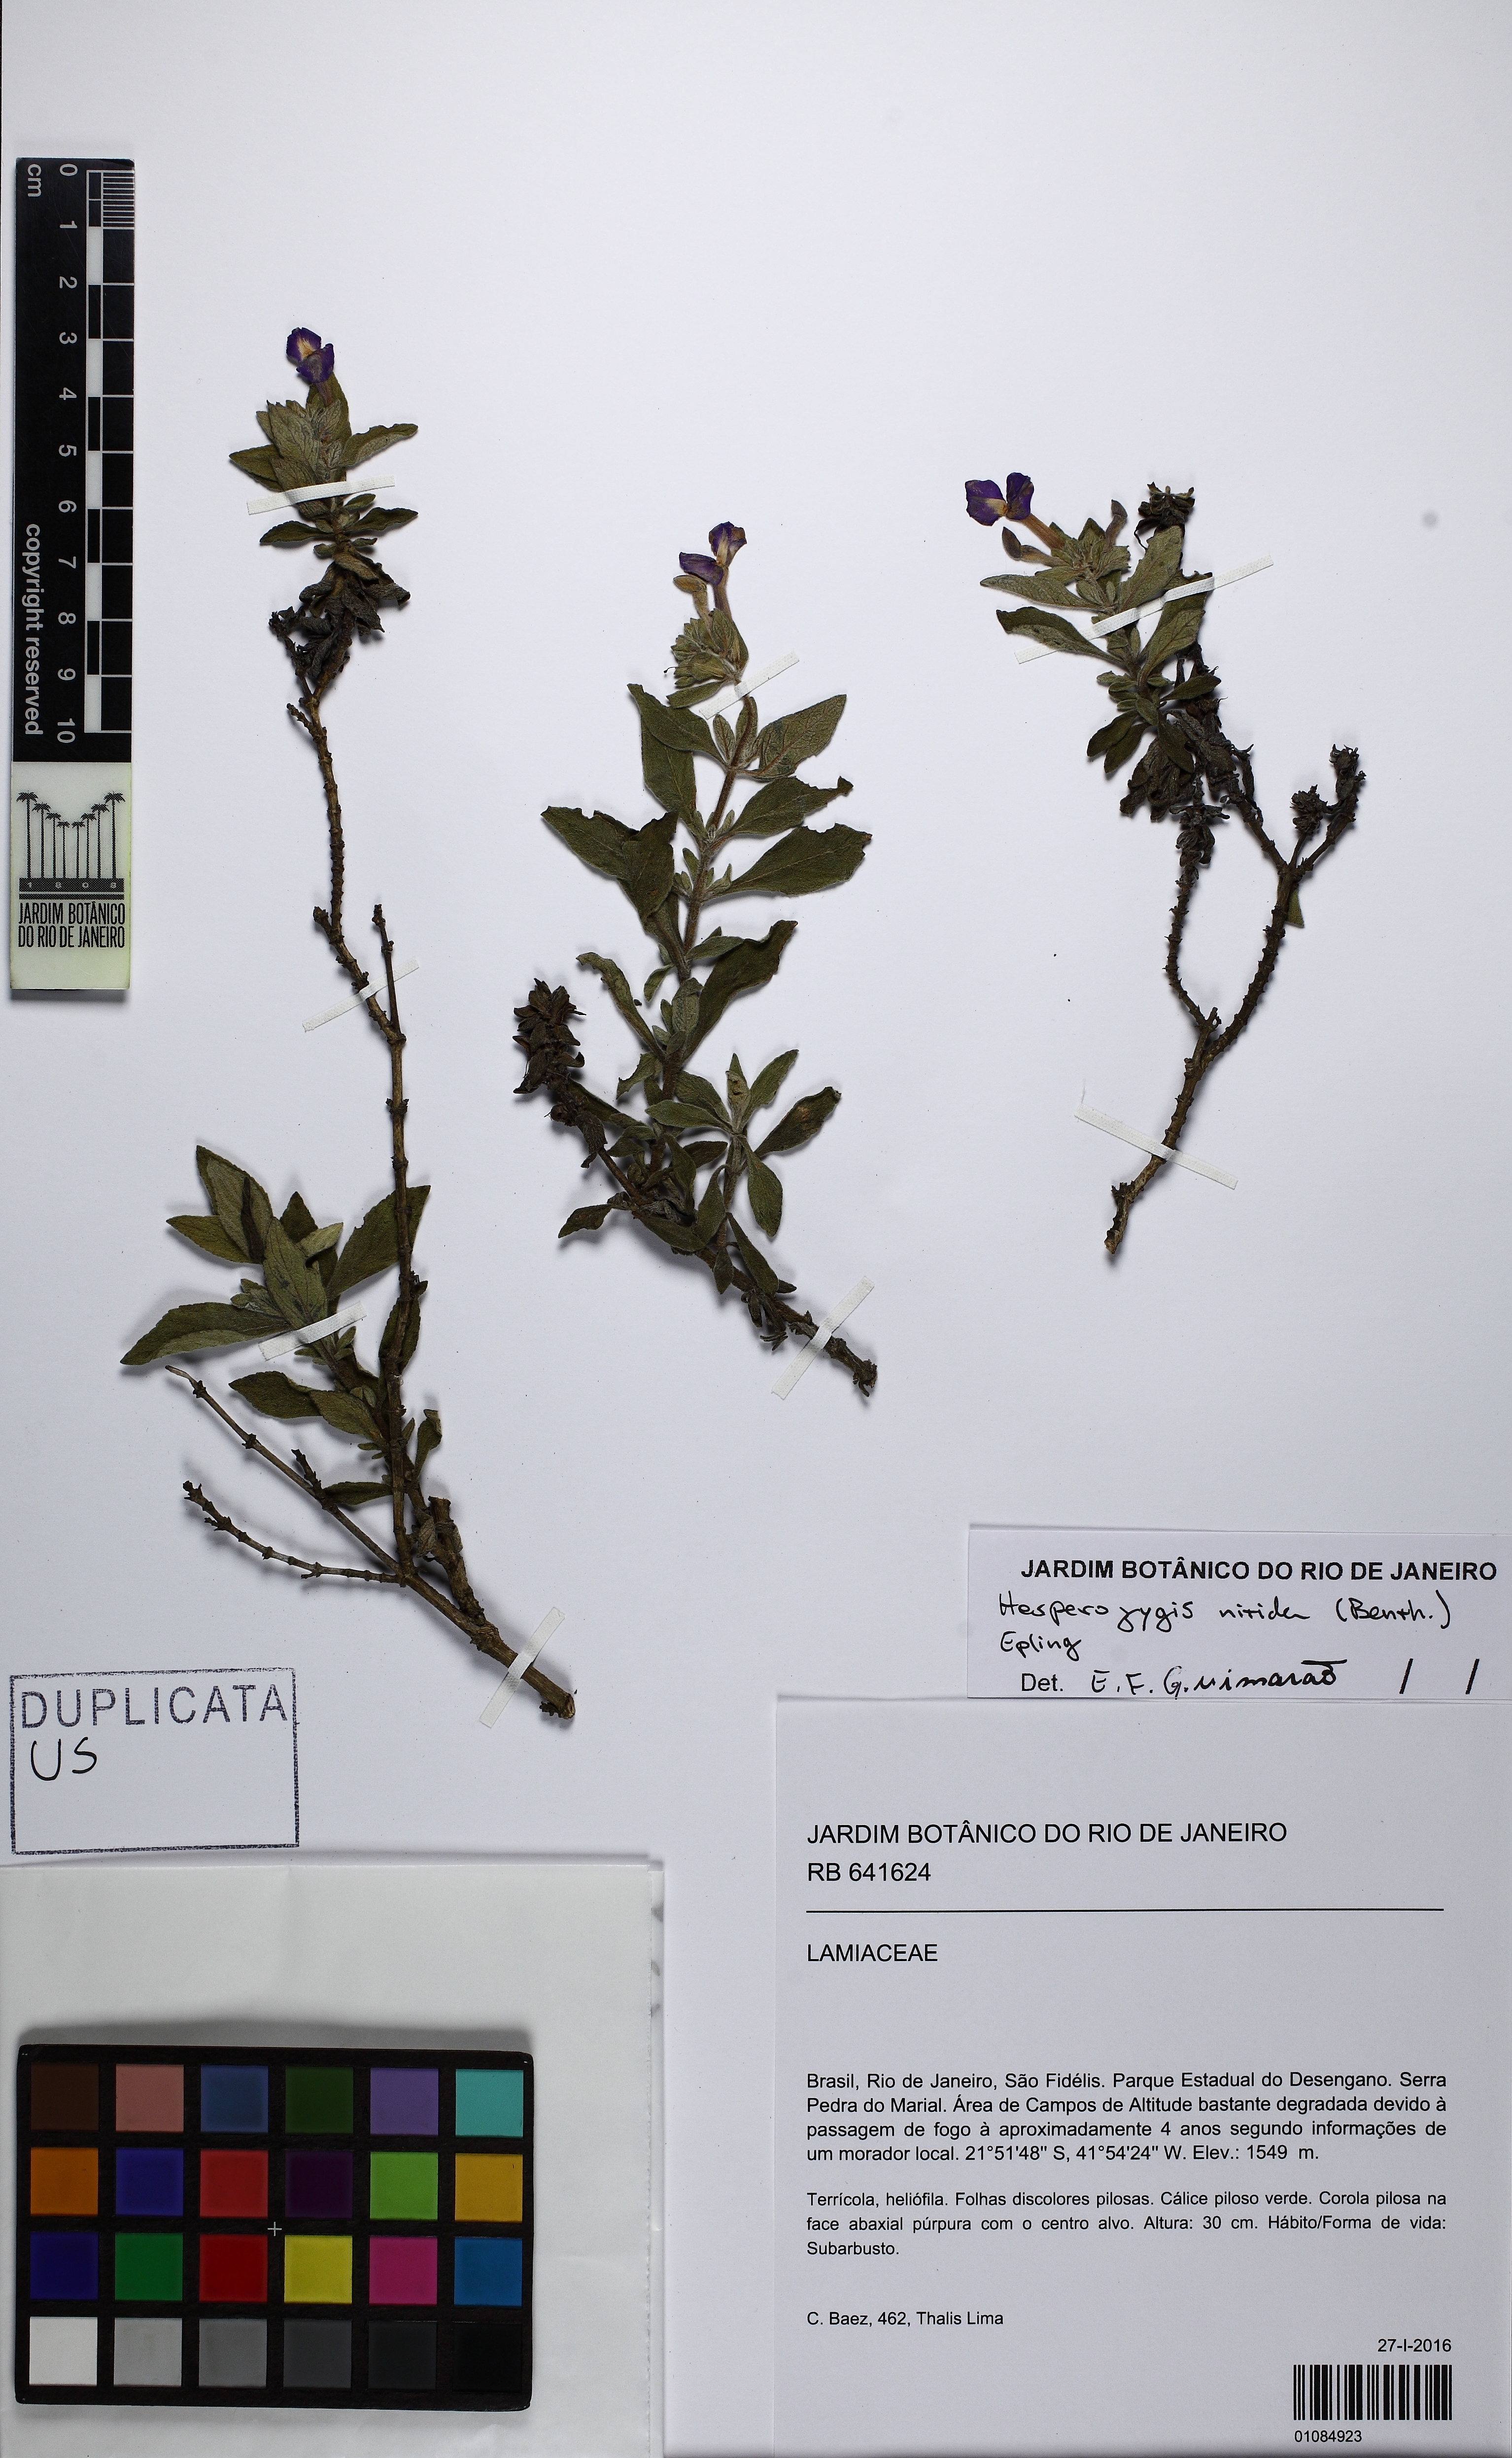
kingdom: Plantae
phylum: Tracheophyta
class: Magnoliopsida
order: Lamiales
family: Plantaginaceae
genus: Matourea
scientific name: Matourea
